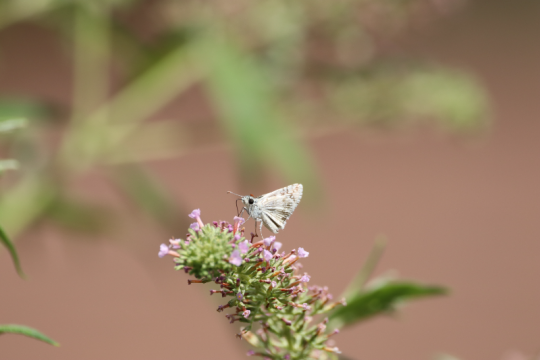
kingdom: Animalia
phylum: Arthropoda
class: Insecta
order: Lepidoptera
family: Hesperiidae
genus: Heliopetes
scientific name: Heliopetes ericetorum
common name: Northern White-Skipper
